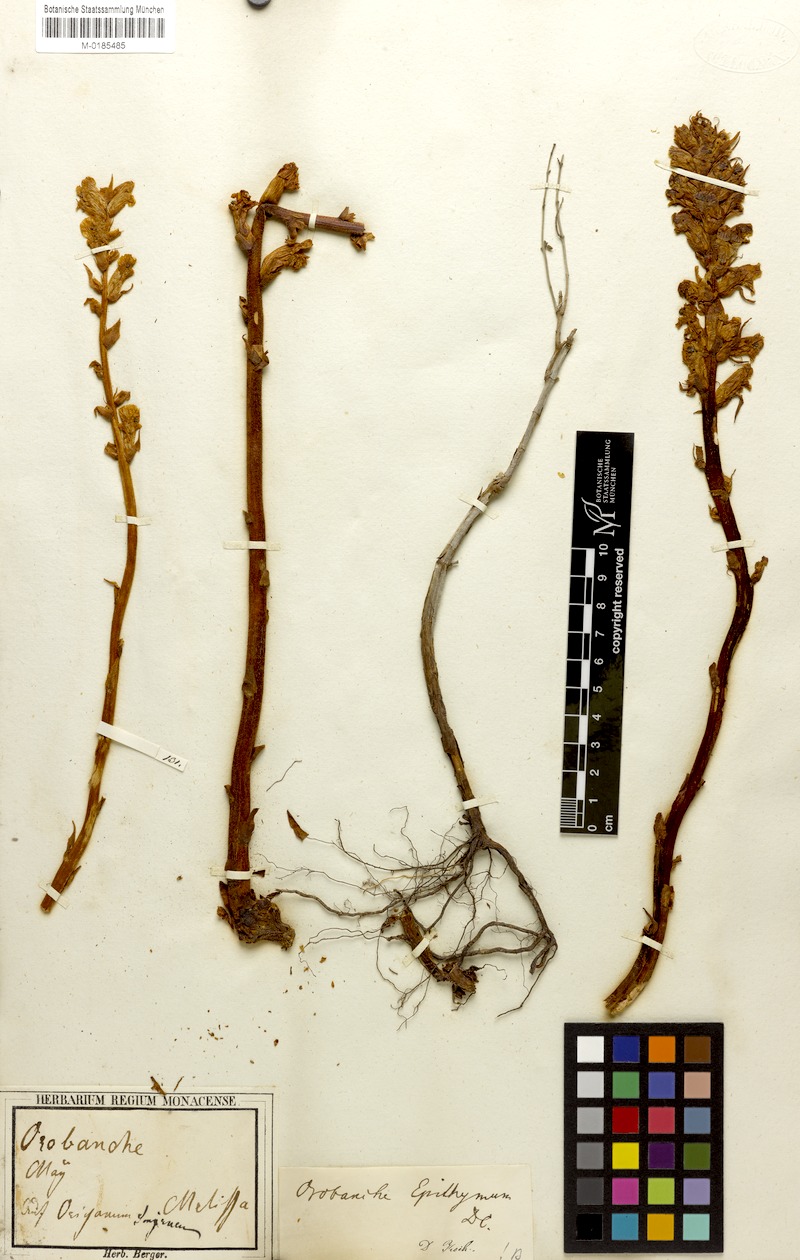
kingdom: Plantae
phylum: Tracheophyta
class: Magnoliopsida
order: Lamiales
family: Orobanchaceae
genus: Orobanche
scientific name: Orobanche alba
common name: Thyme broomrape
